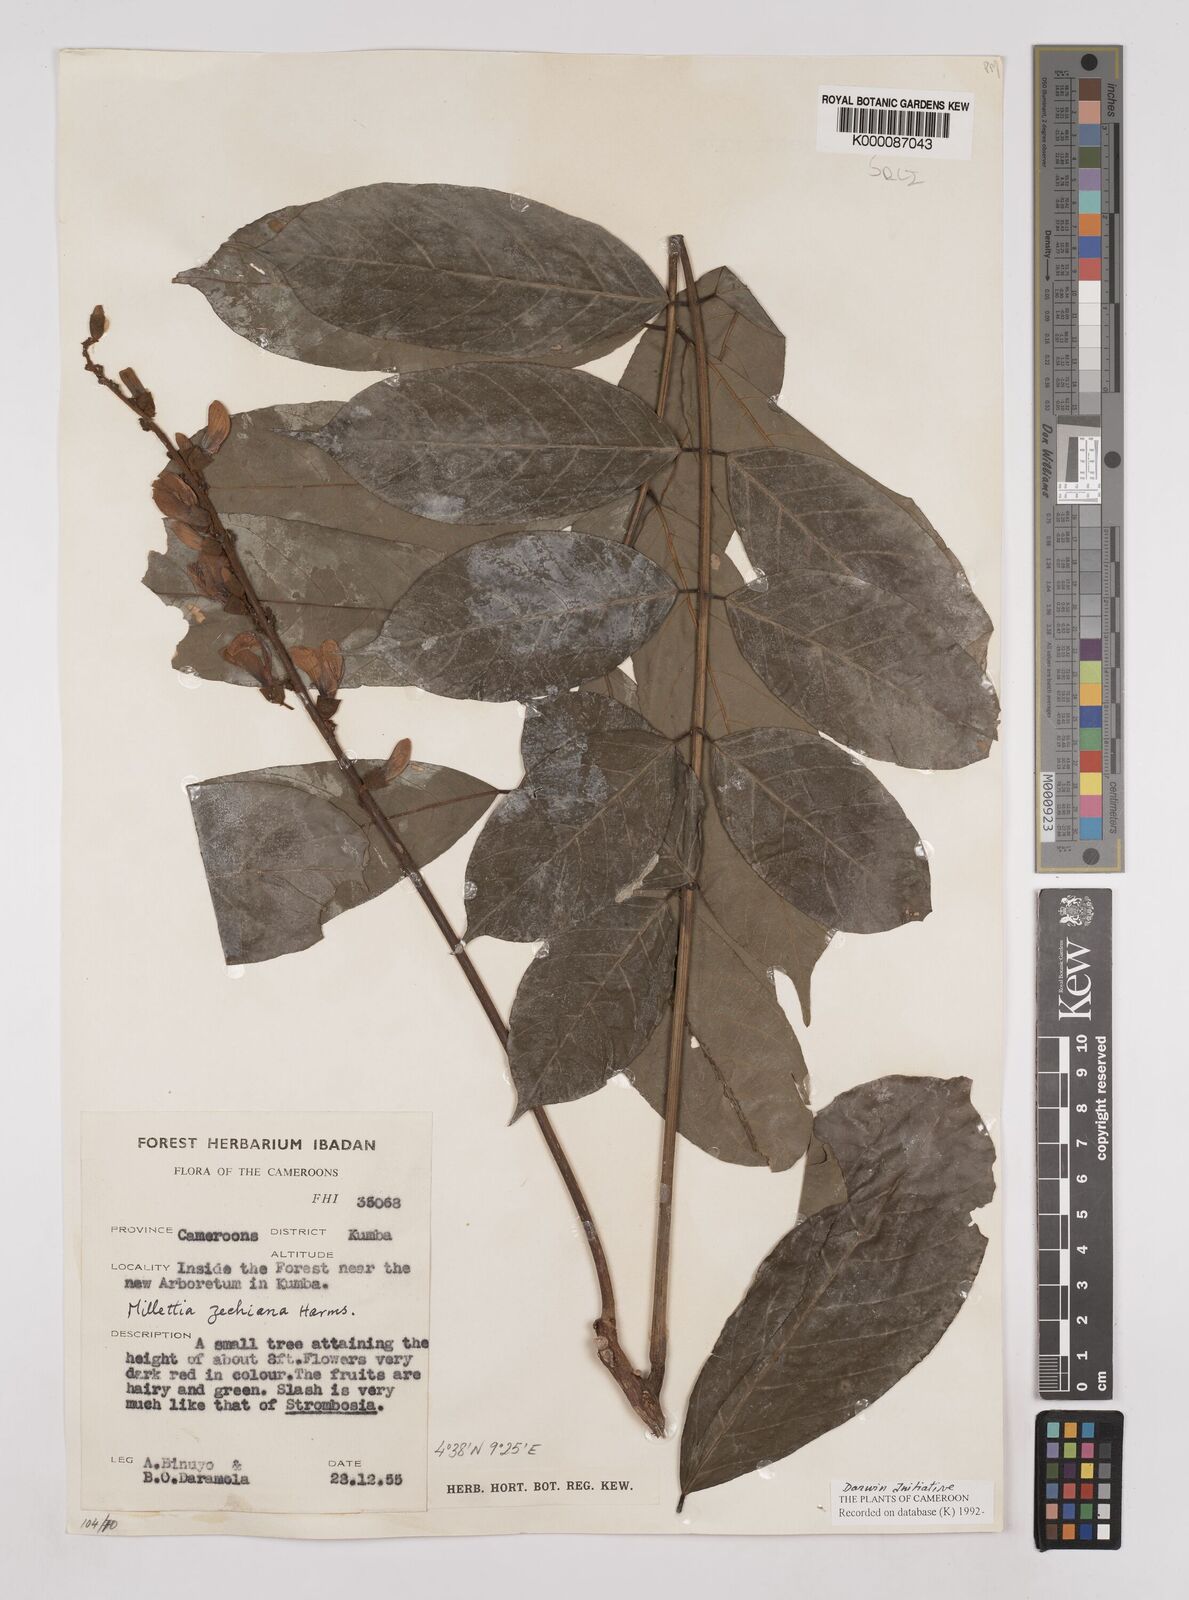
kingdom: Plantae
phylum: Tracheophyta
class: Magnoliopsida
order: Fabales
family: Fabaceae
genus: Millettia
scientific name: Millettia zechiana
